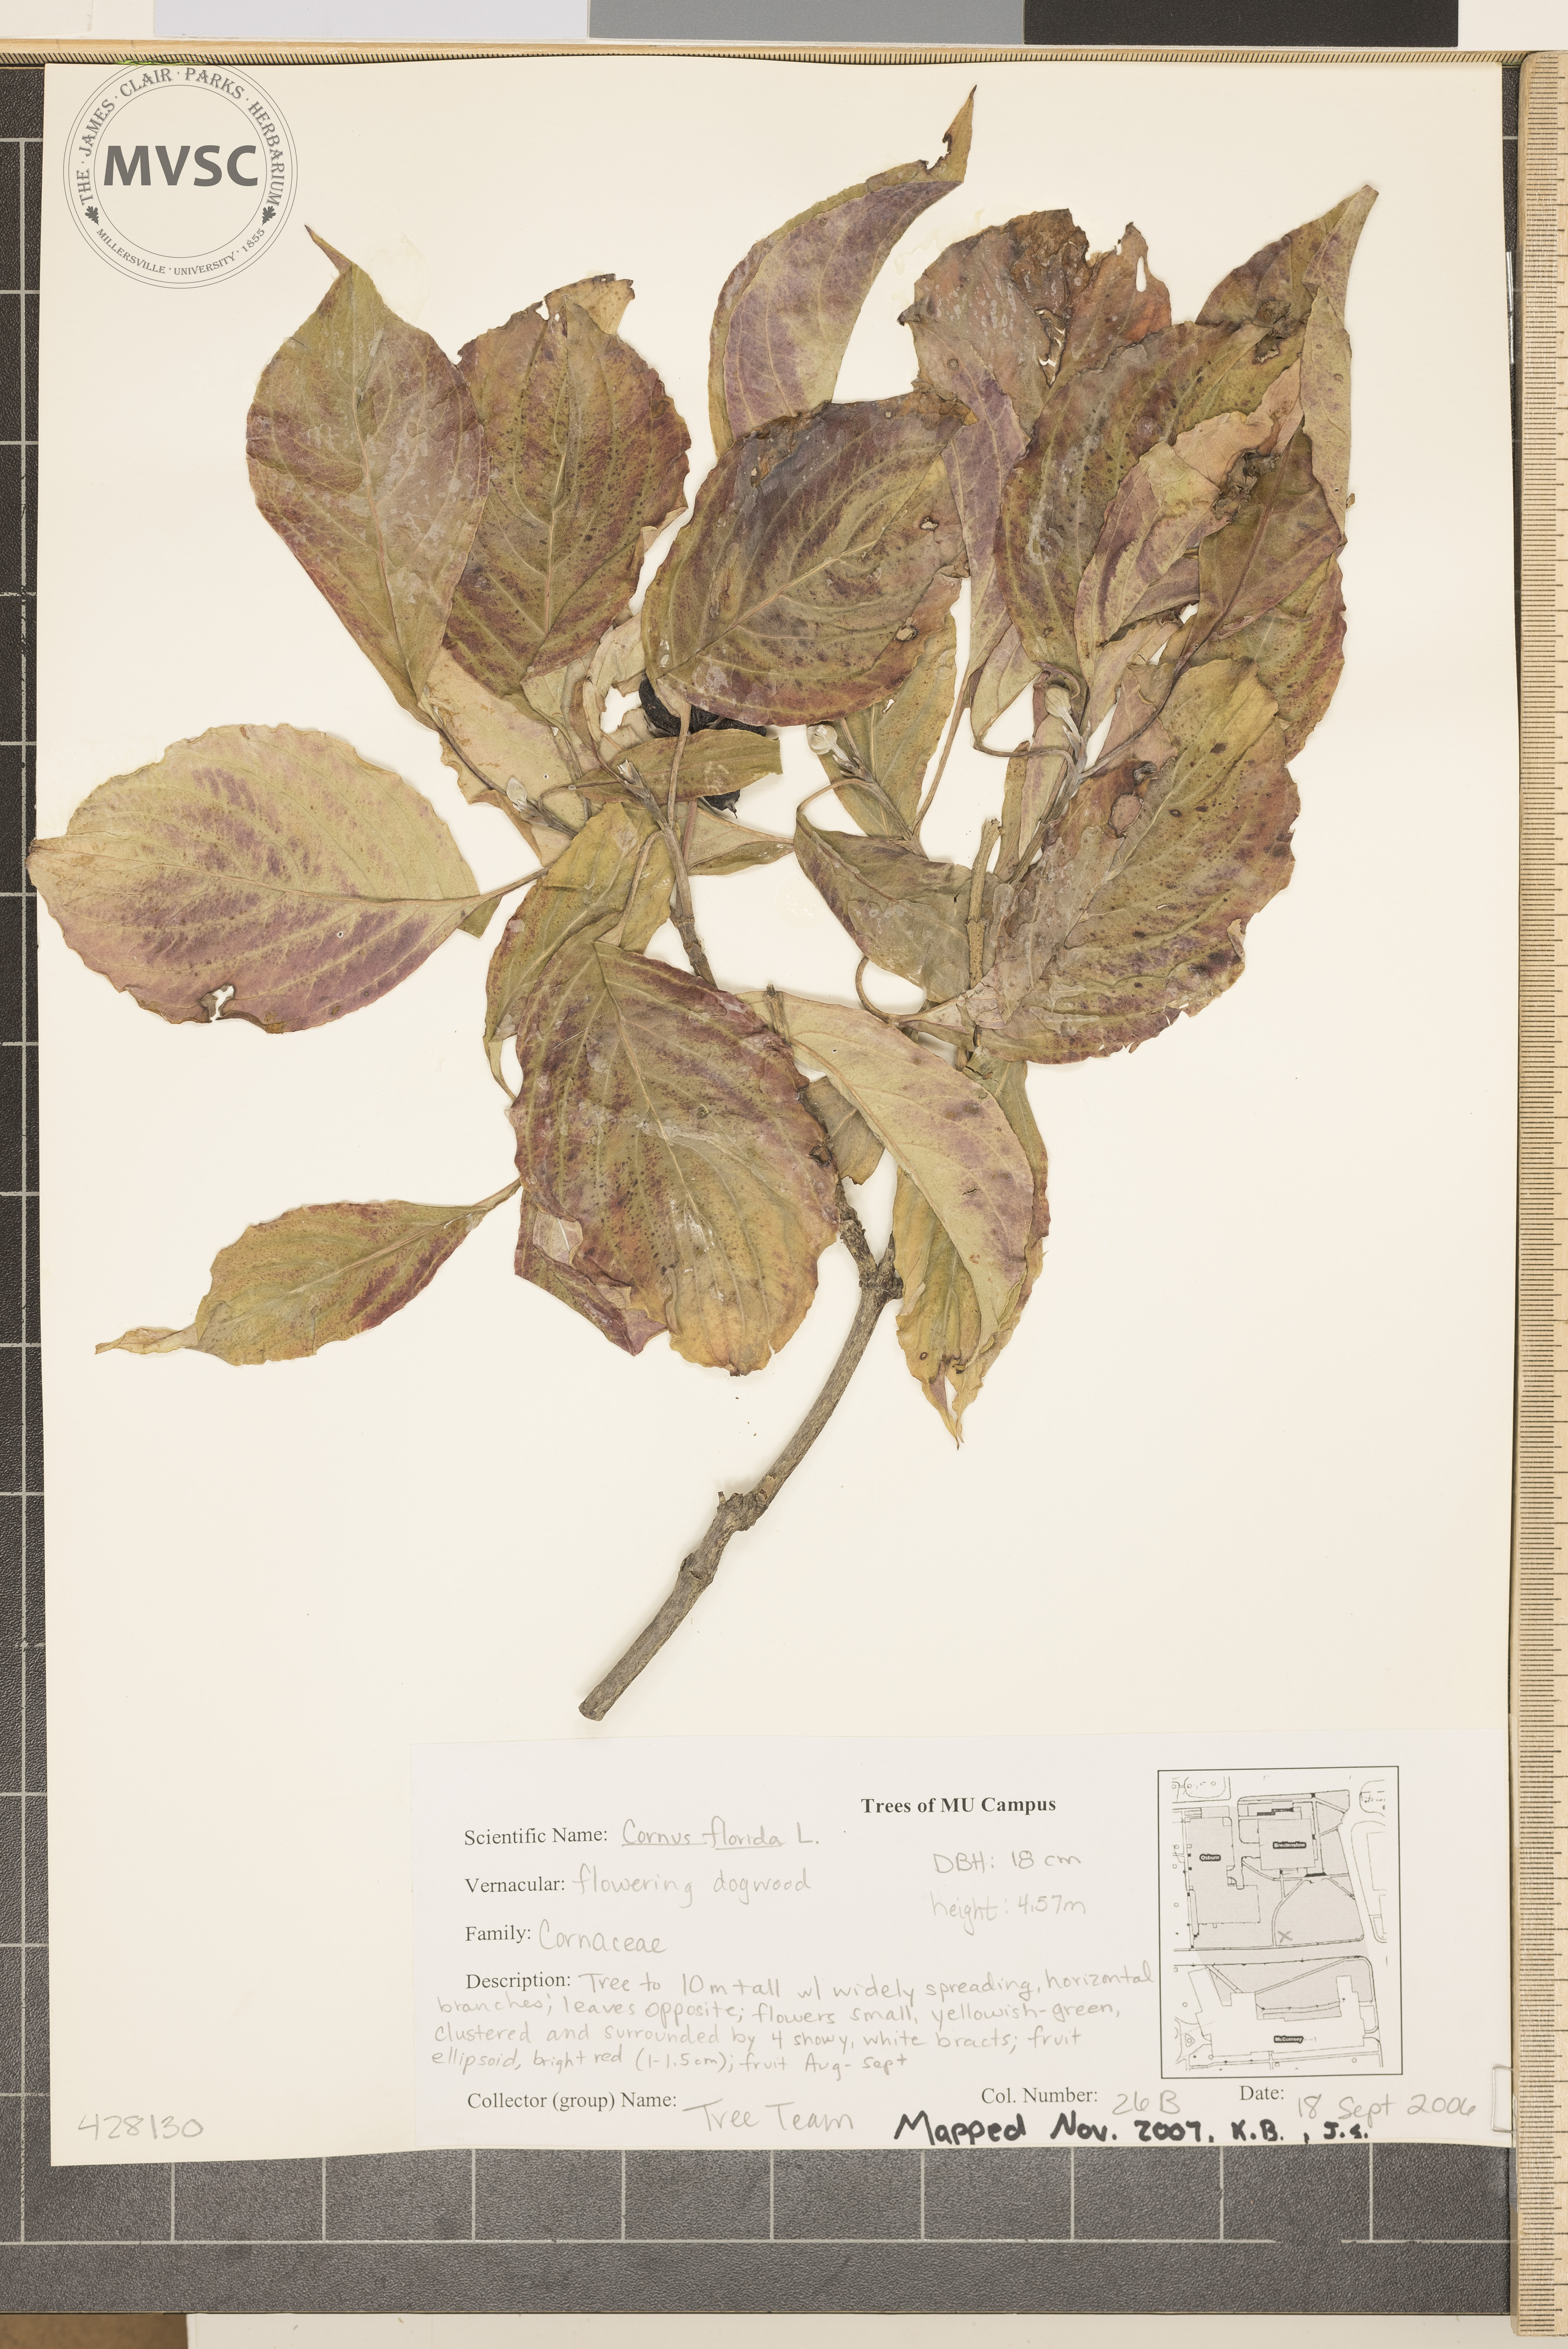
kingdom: Plantae
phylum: Tracheophyta
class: Magnoliopsida
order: Cornales
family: Cornaceae
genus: Cornus
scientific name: Cornus florida
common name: Flowering Dogwood
